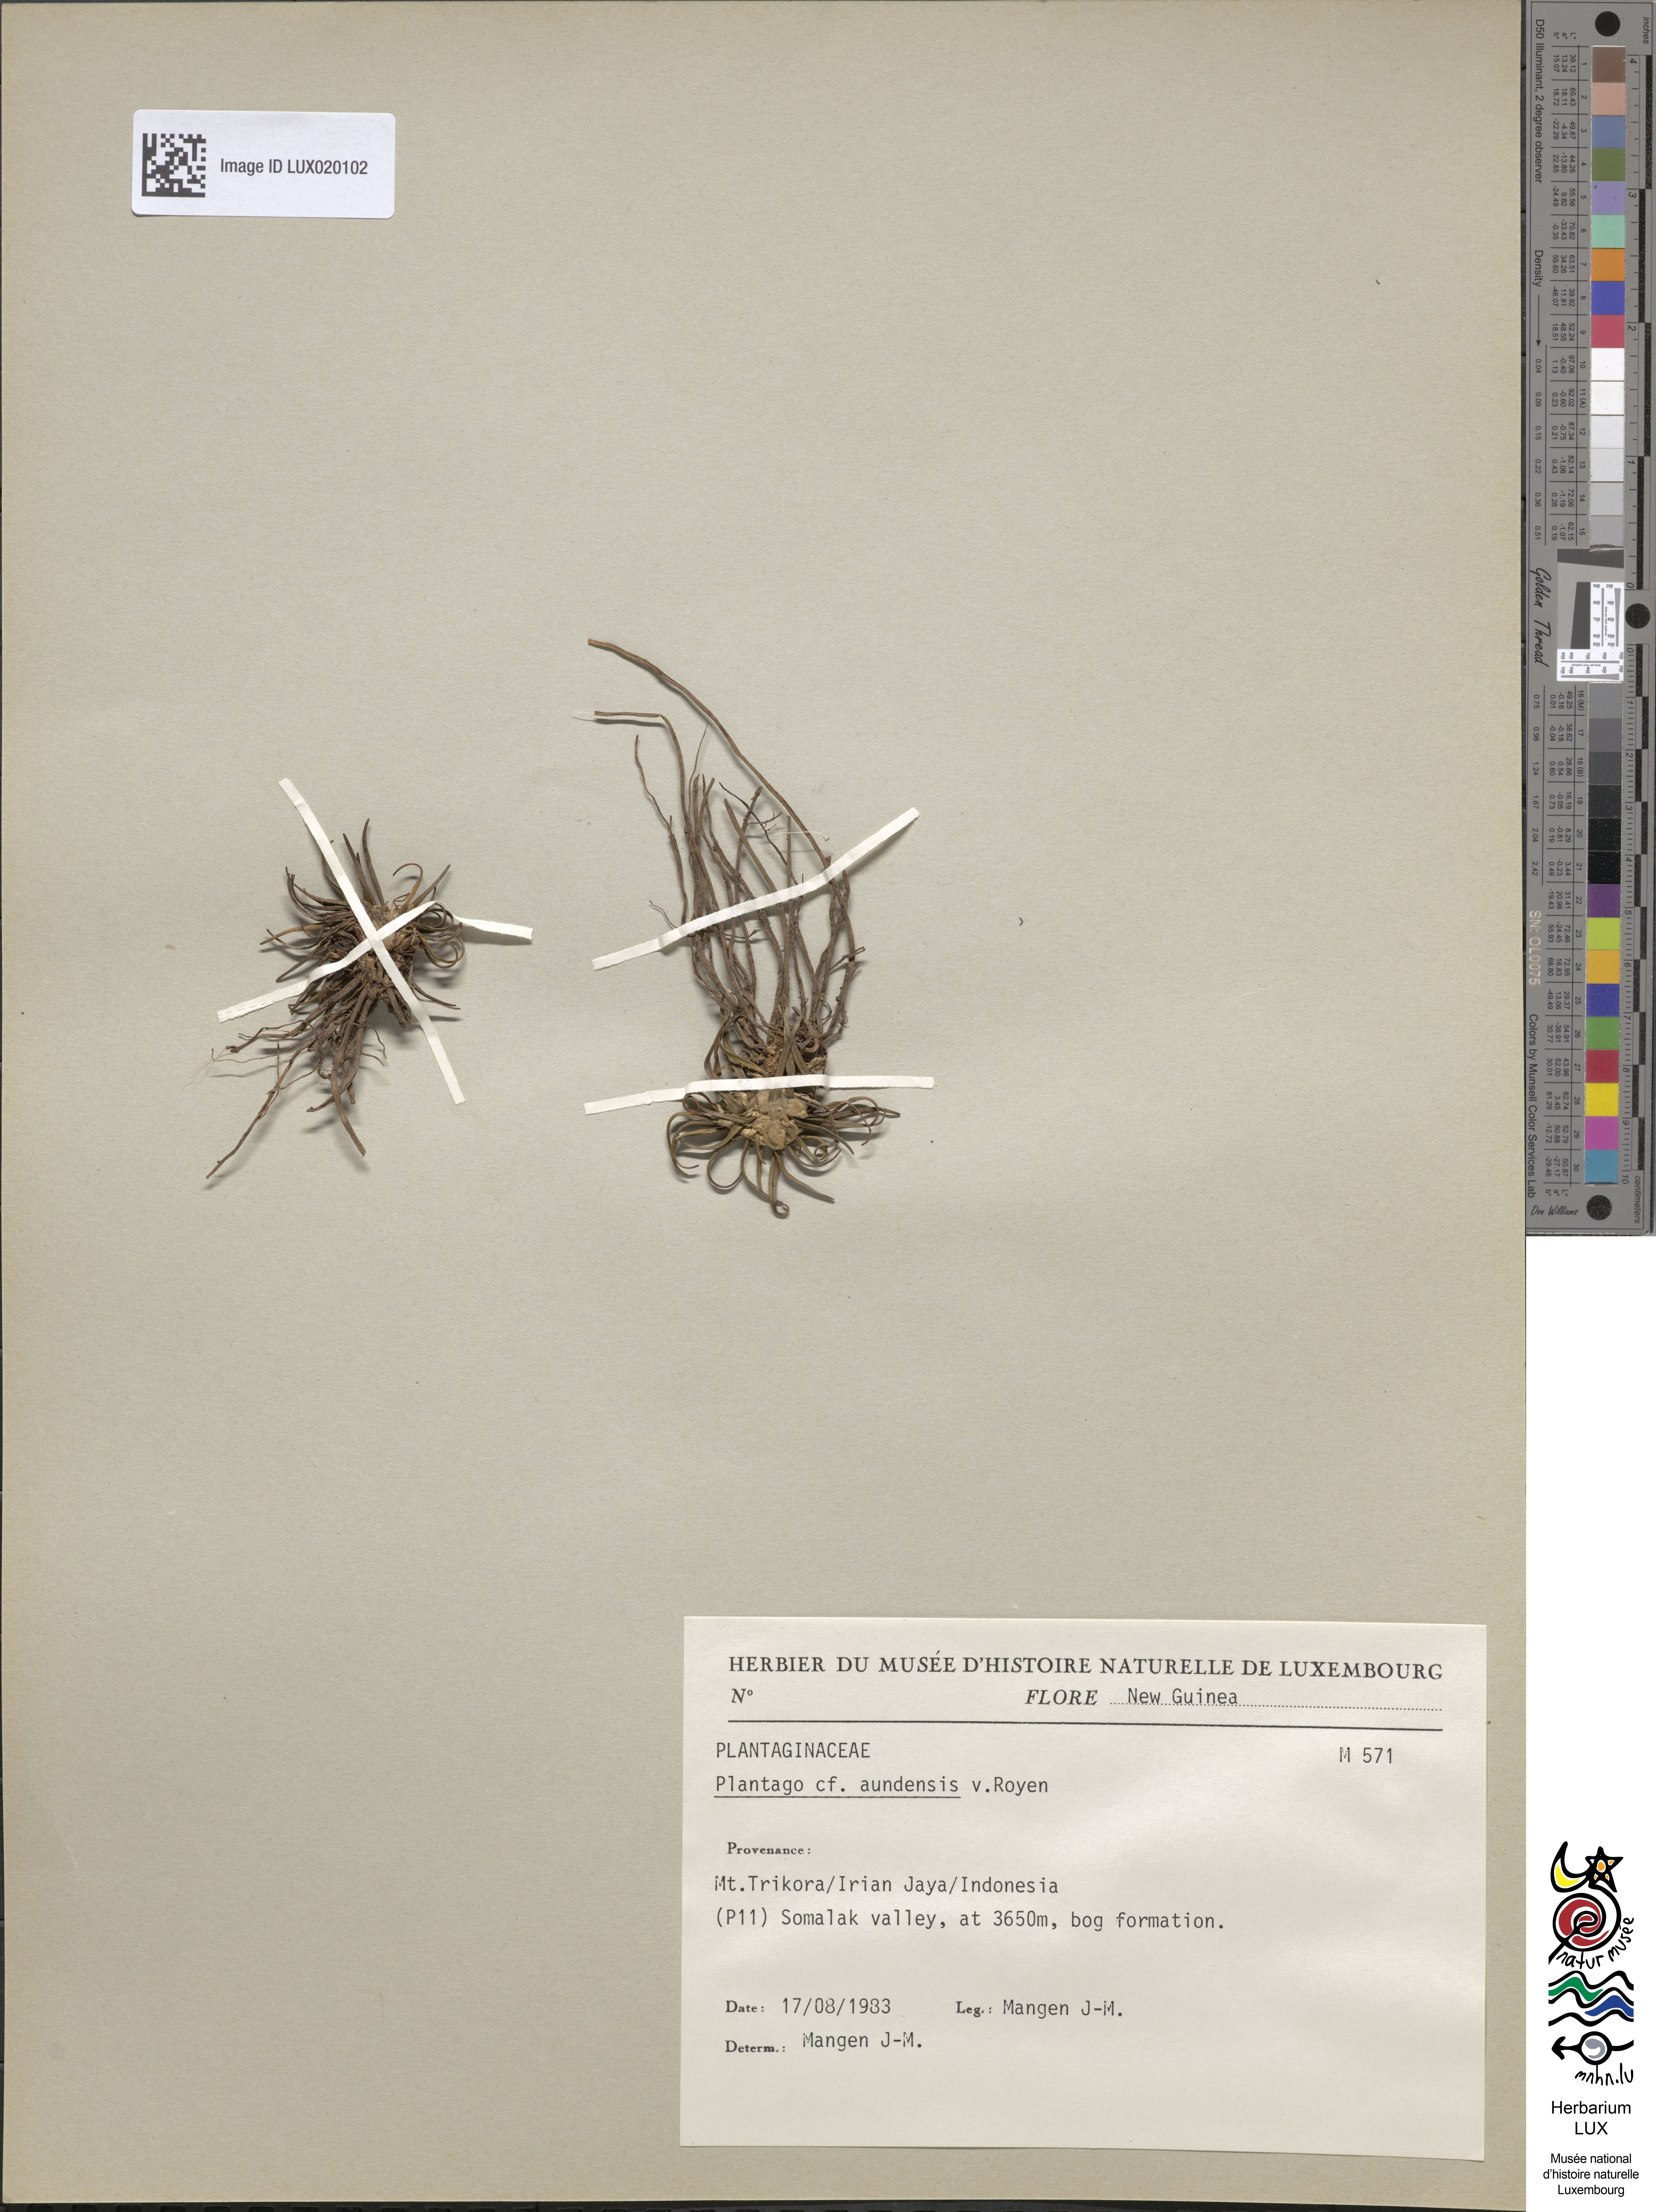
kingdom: Plantae
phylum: Tracheophyta
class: Magnoliopsida
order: Lamiales
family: Plantaginaceae
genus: Plantago
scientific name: Plantago aundensis
